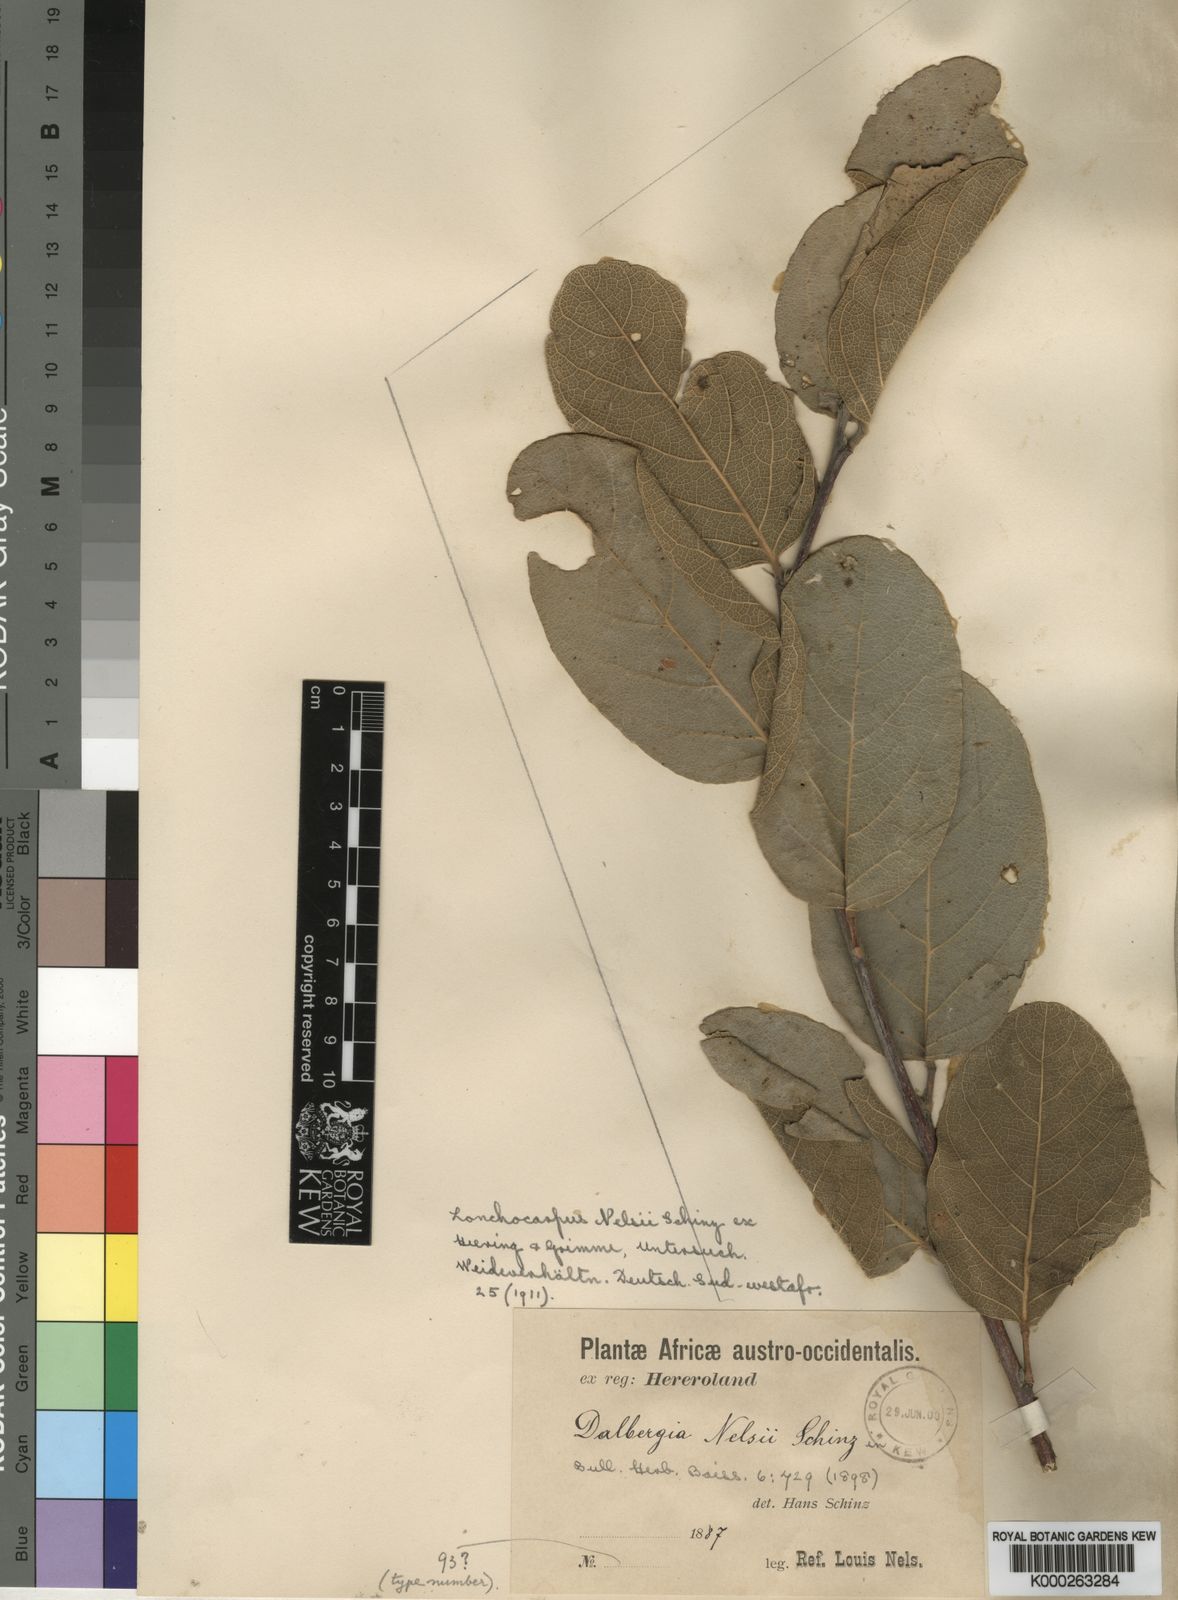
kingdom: Plantae
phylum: Tracheophyta
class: Magnoliopsida
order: Fabales
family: Fabaceae
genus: Philenoptera
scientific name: Philenoptera nelsii
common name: Kalahari apple-leaf
